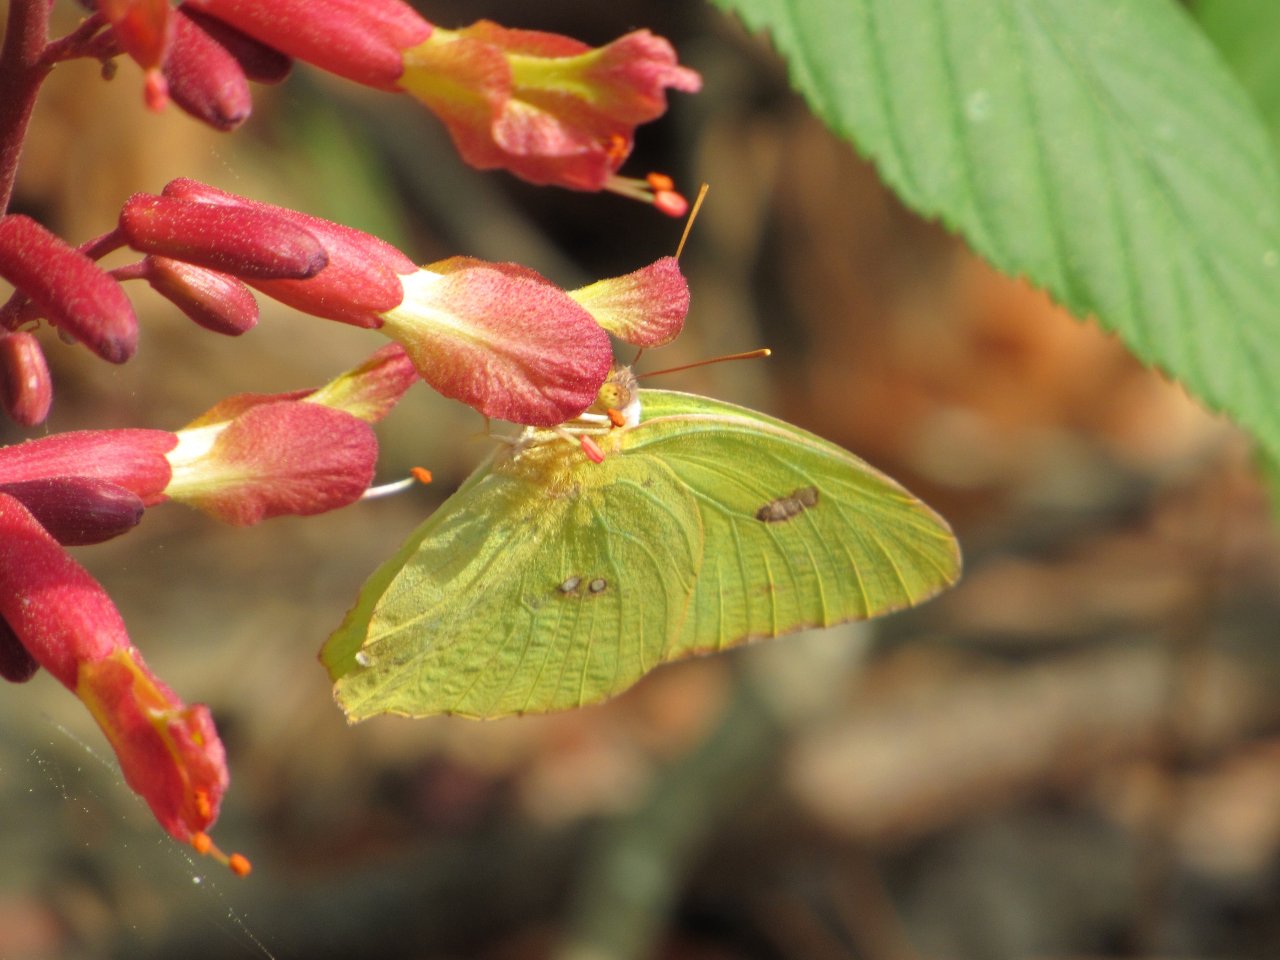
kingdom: Animalia
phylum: Arthropoda
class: Insecta
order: Lepidoptera
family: Pieridae
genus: Phoebis
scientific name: Phoebis sennae
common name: Cloudless Sulphur
